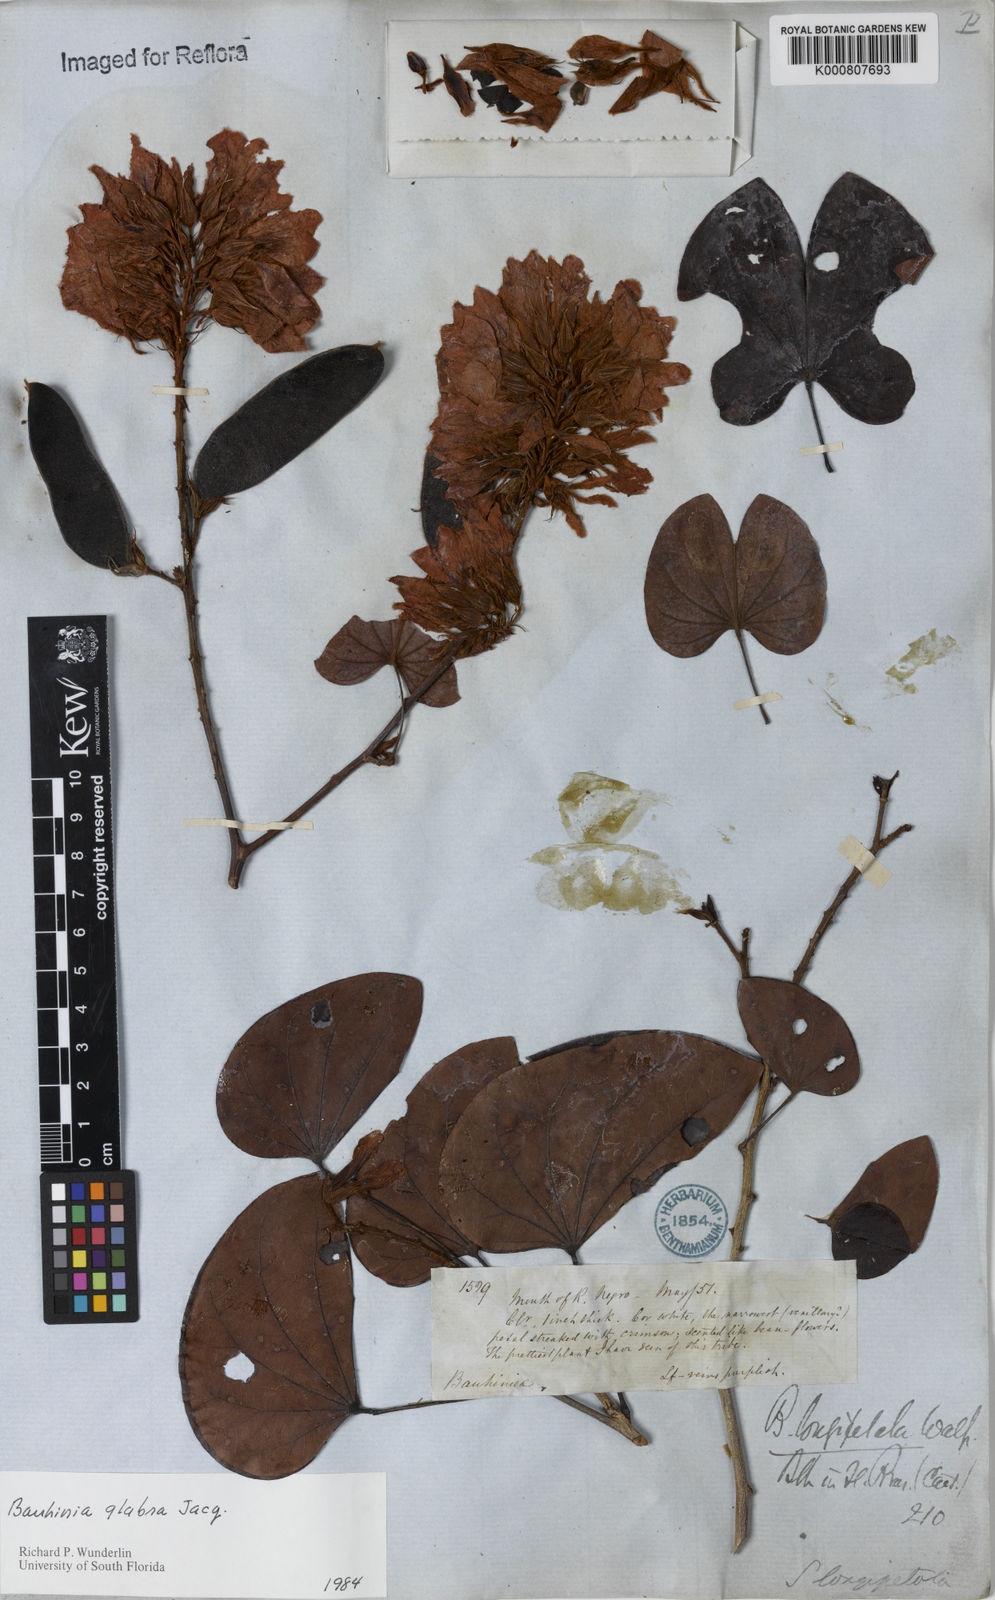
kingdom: Plantae
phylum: Tracheophyta
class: Magnoliopsida
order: Fabales
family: Fabaceae
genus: Schnella
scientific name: Schnella glabra
